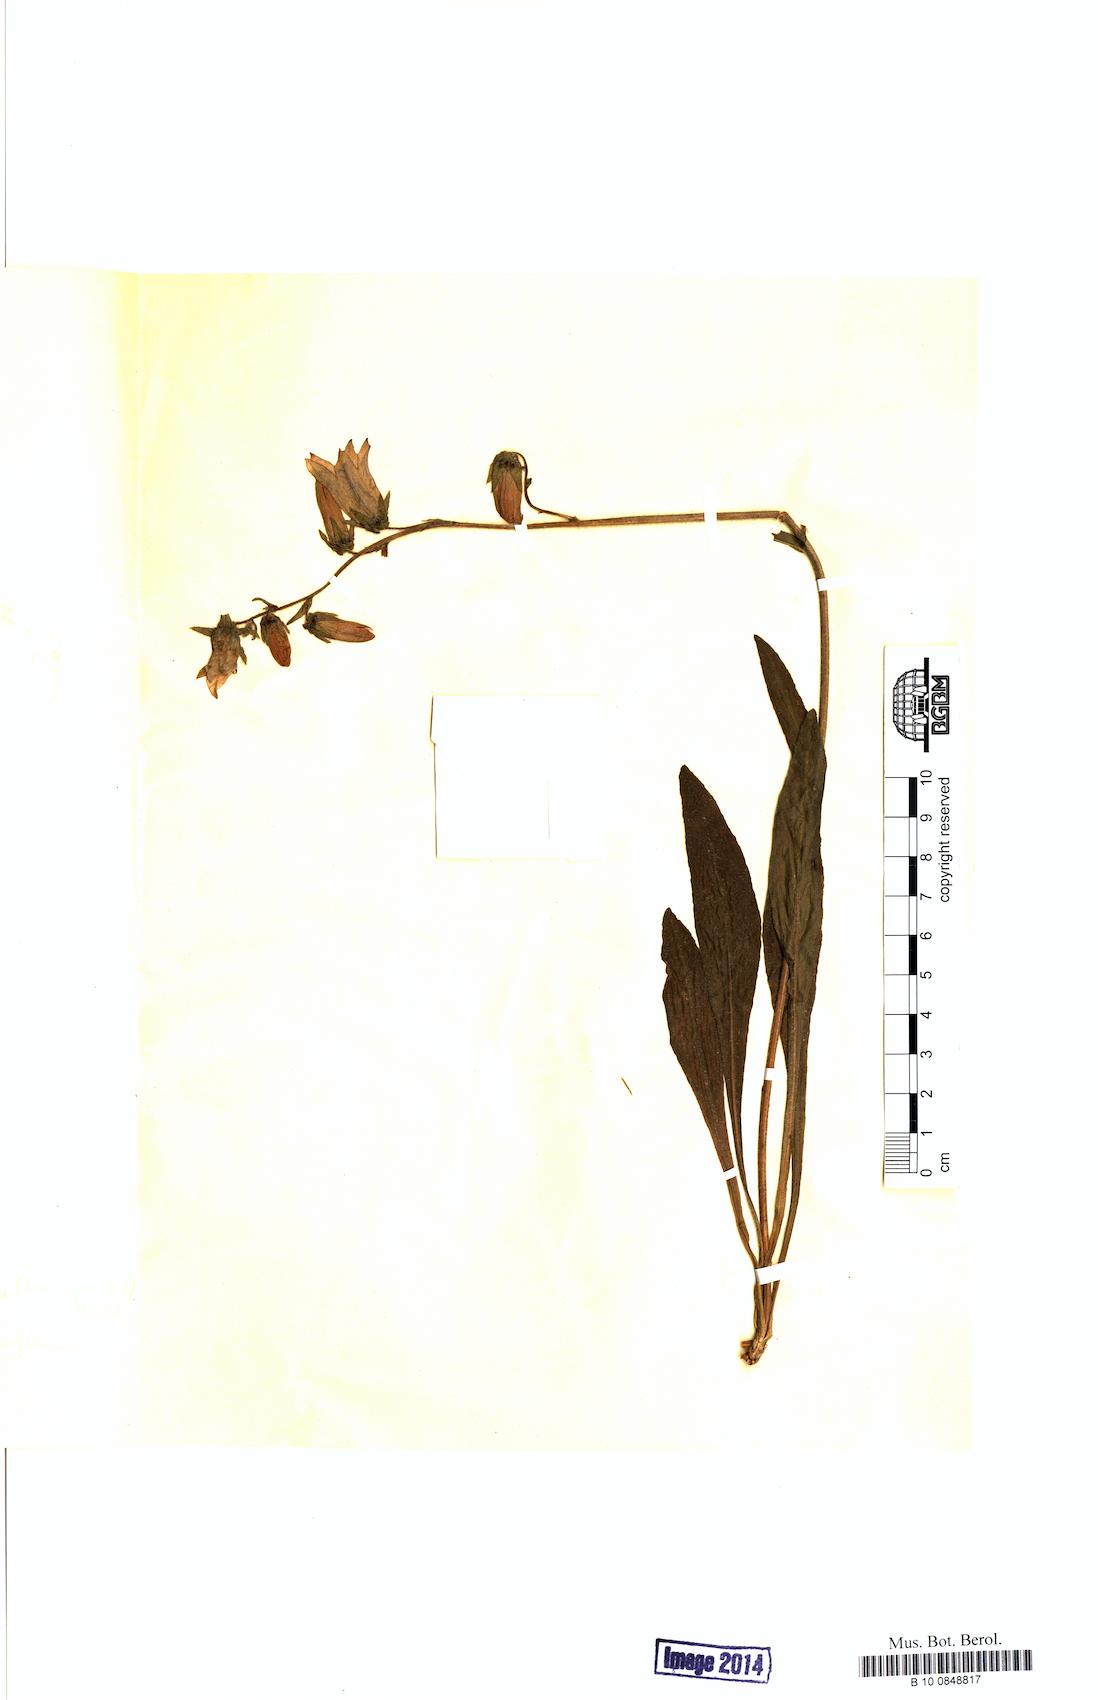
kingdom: Plantae
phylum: Tracheophyta
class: Magnoliopsida
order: Asterales
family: Campanulaceae
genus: Campanula
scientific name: Campanula barbata
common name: Bearded bellflower
